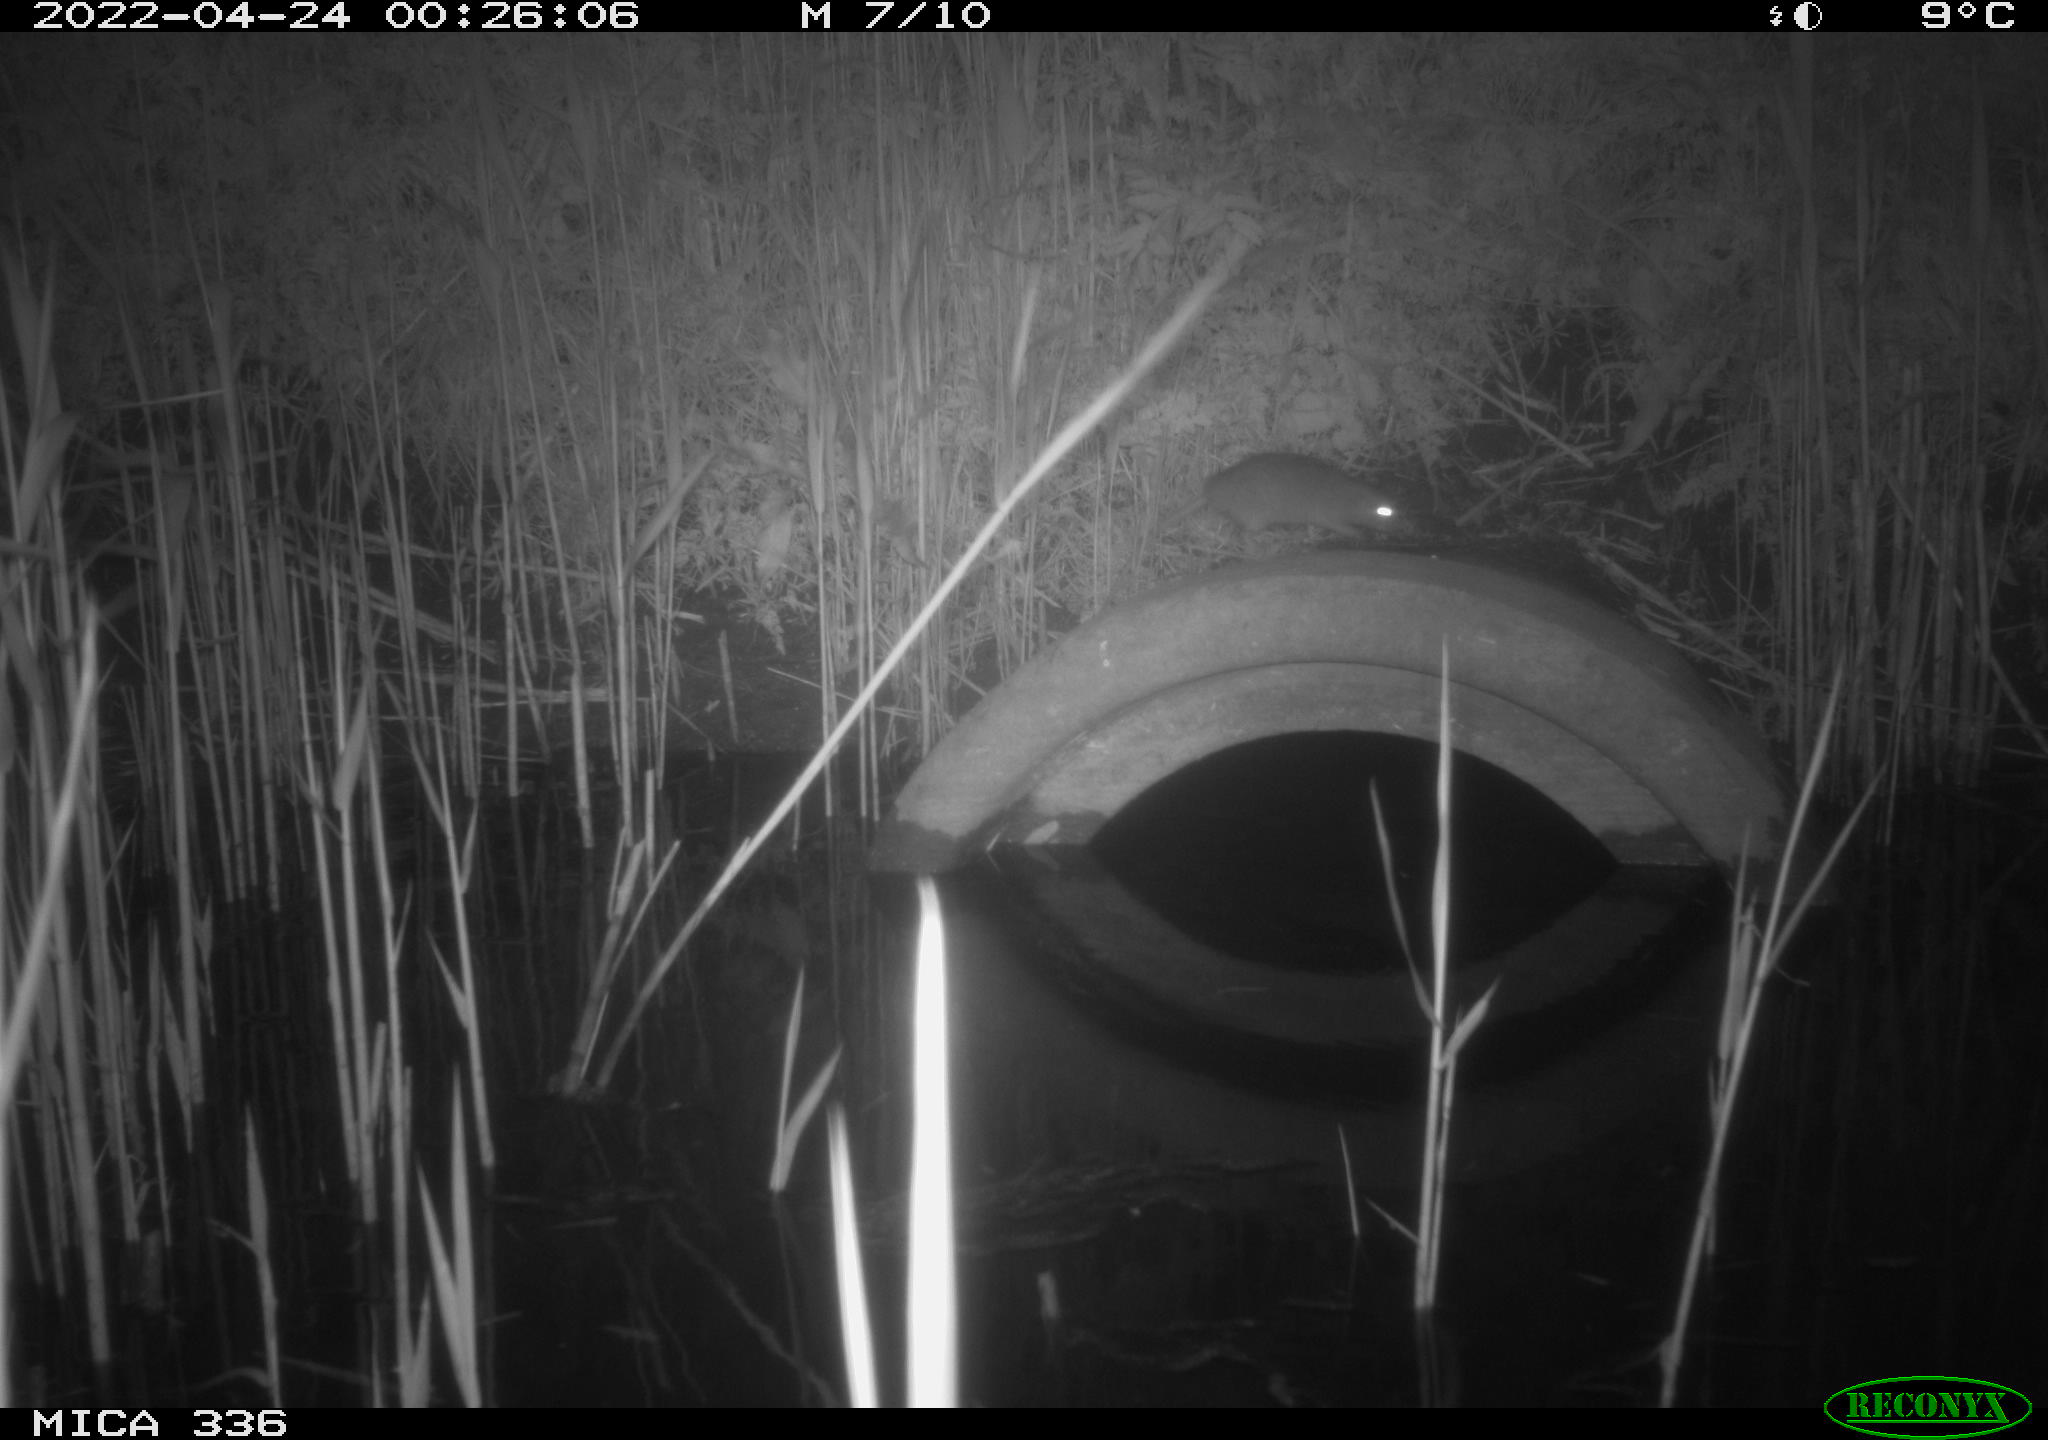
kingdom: Animalia
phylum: Chordata
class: Mammalia
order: Rodentia
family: Muridae
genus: Rattus
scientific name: Rattus norvegicus
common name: Brown rat
